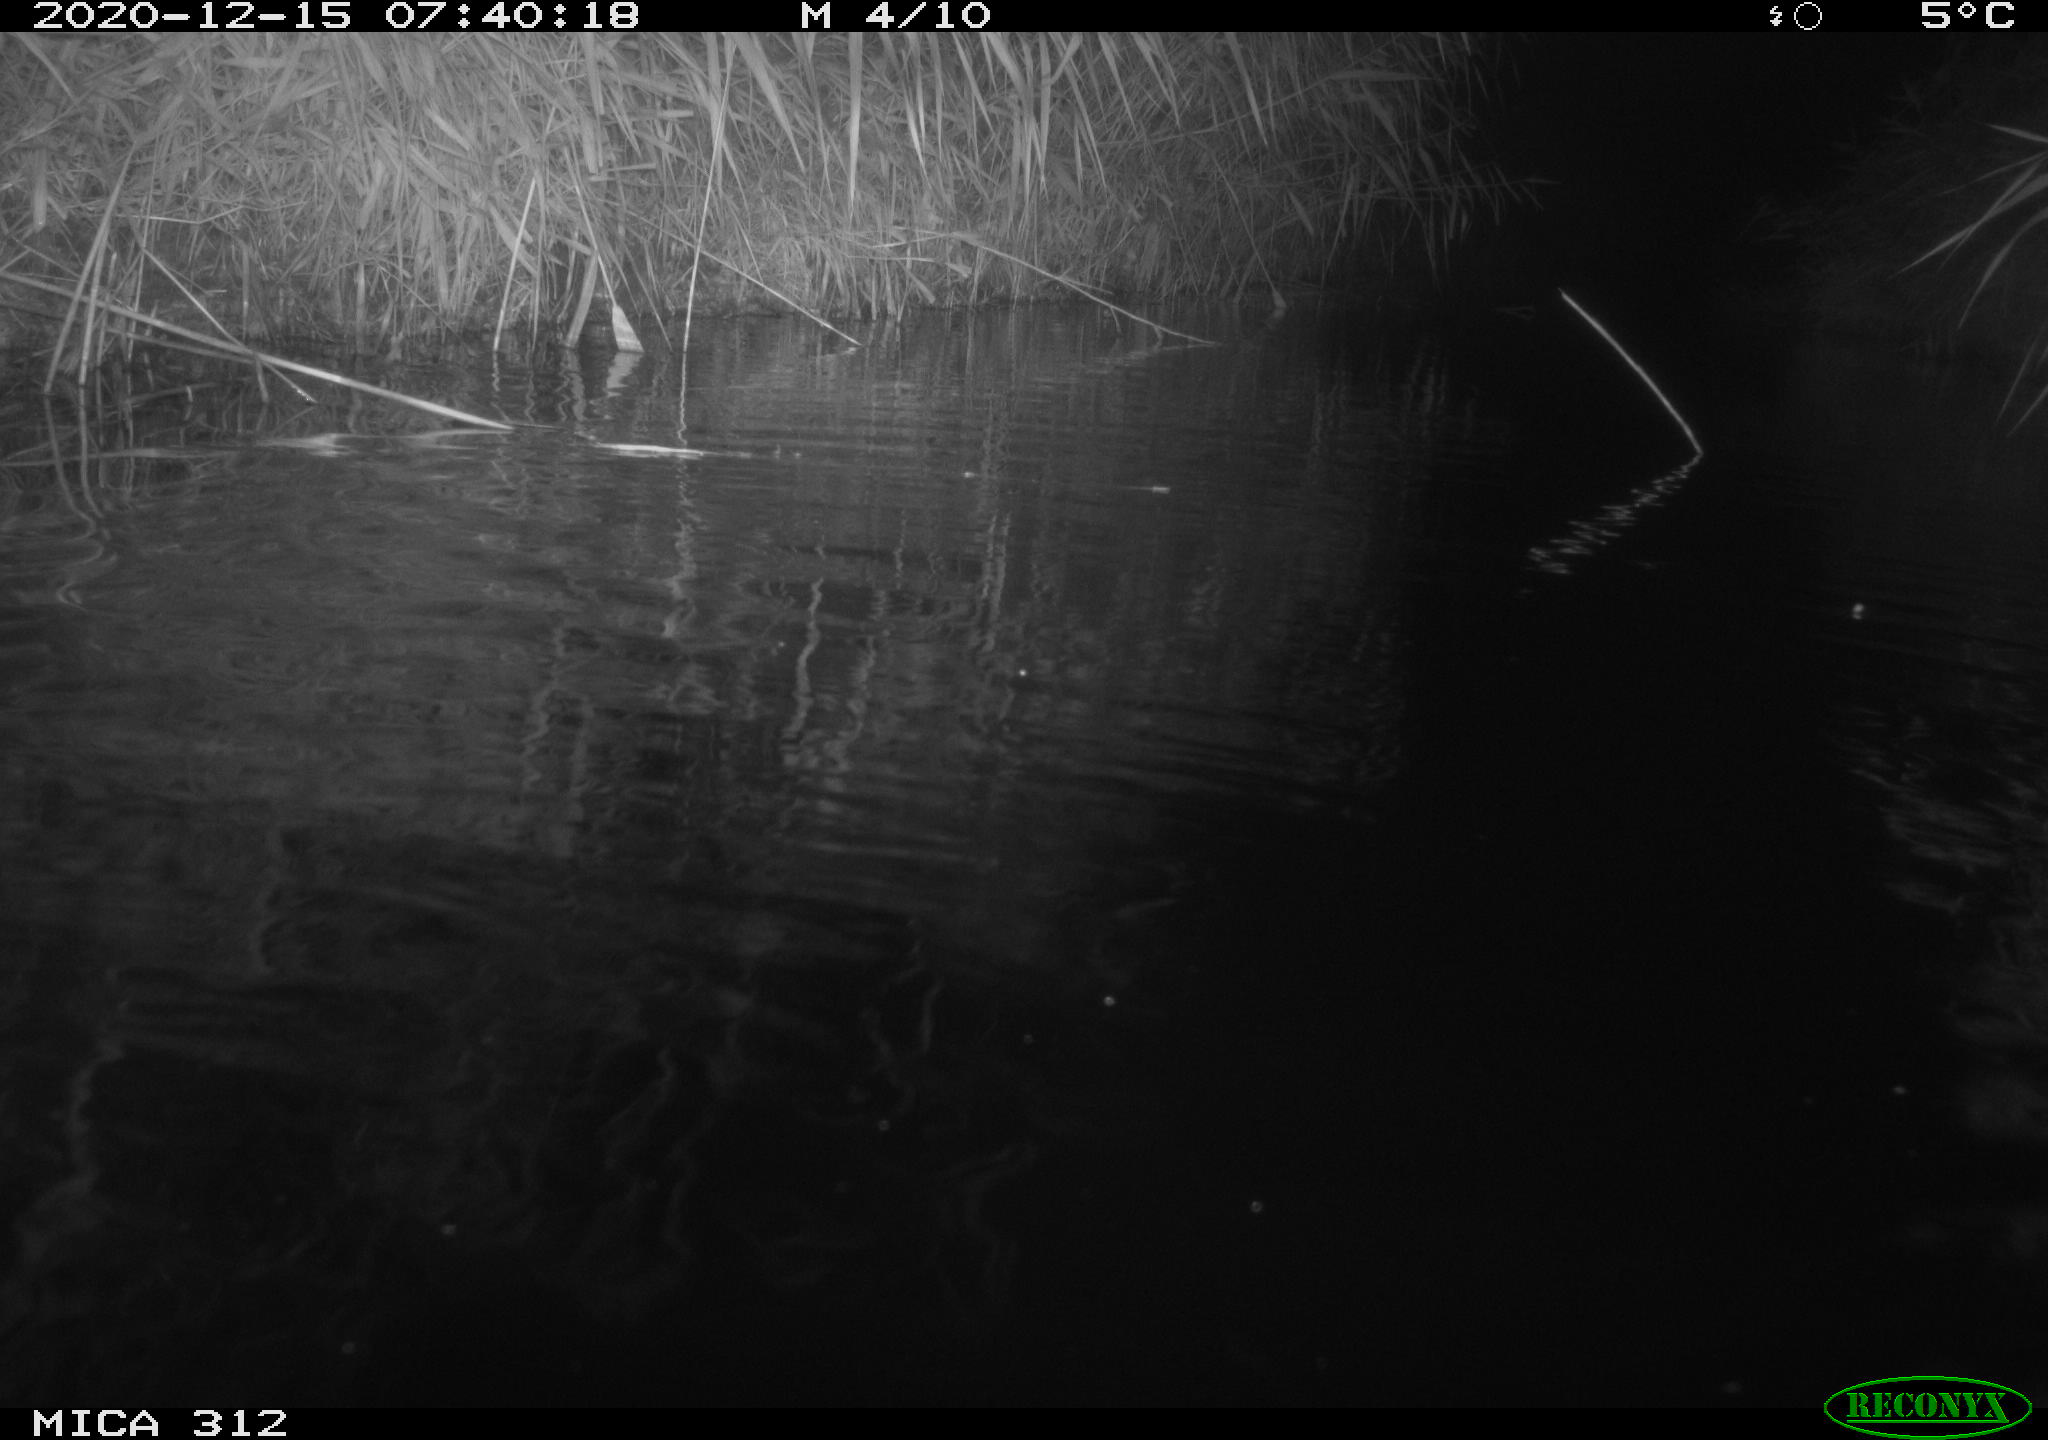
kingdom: Animalia
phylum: Chordata
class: Mammalia
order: Rodentia
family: Muridae
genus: Rattus
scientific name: Rattus norvegicus
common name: Brown rat
